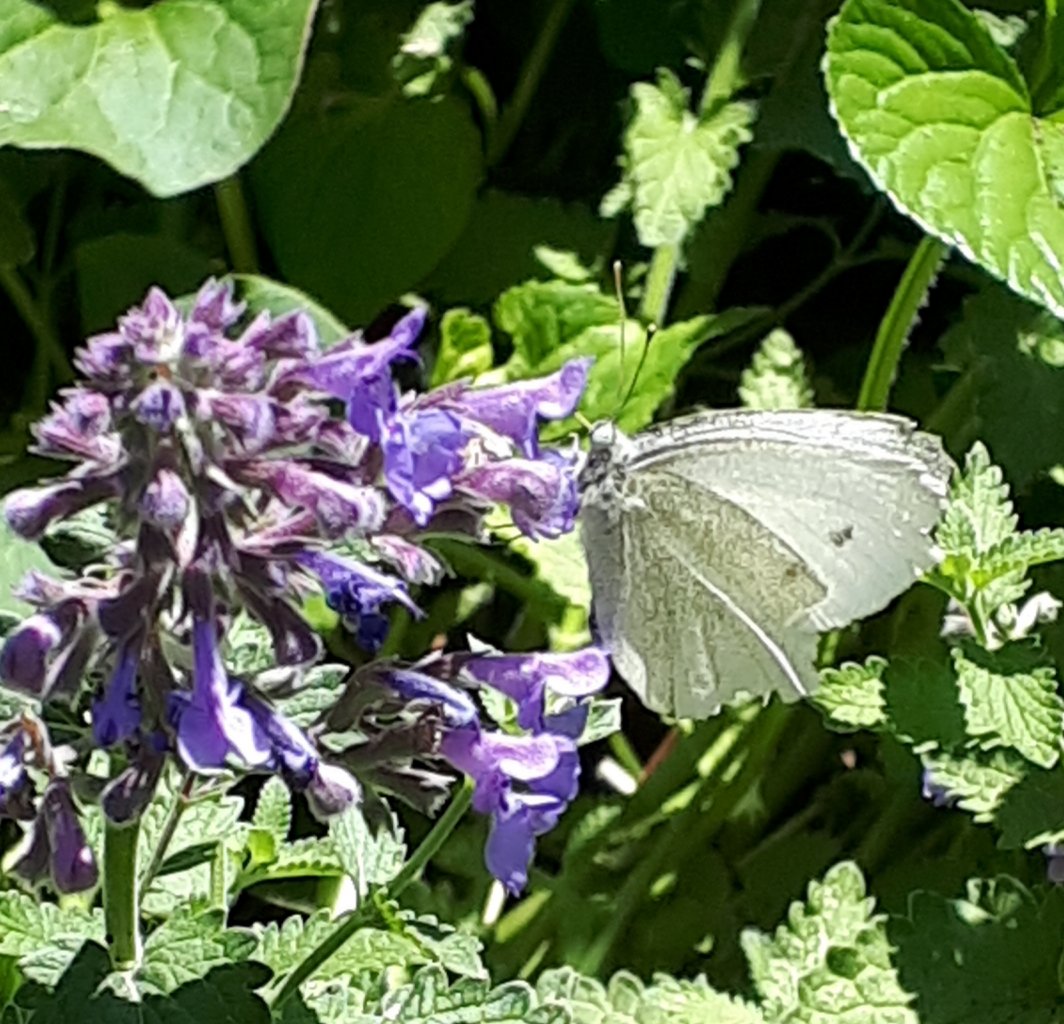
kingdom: Animalia
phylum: Arthropoda
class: Insecta
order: Lepidoptera
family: Pieridae
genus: Pieris
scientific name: Pieris rapae
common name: Cabbage White
